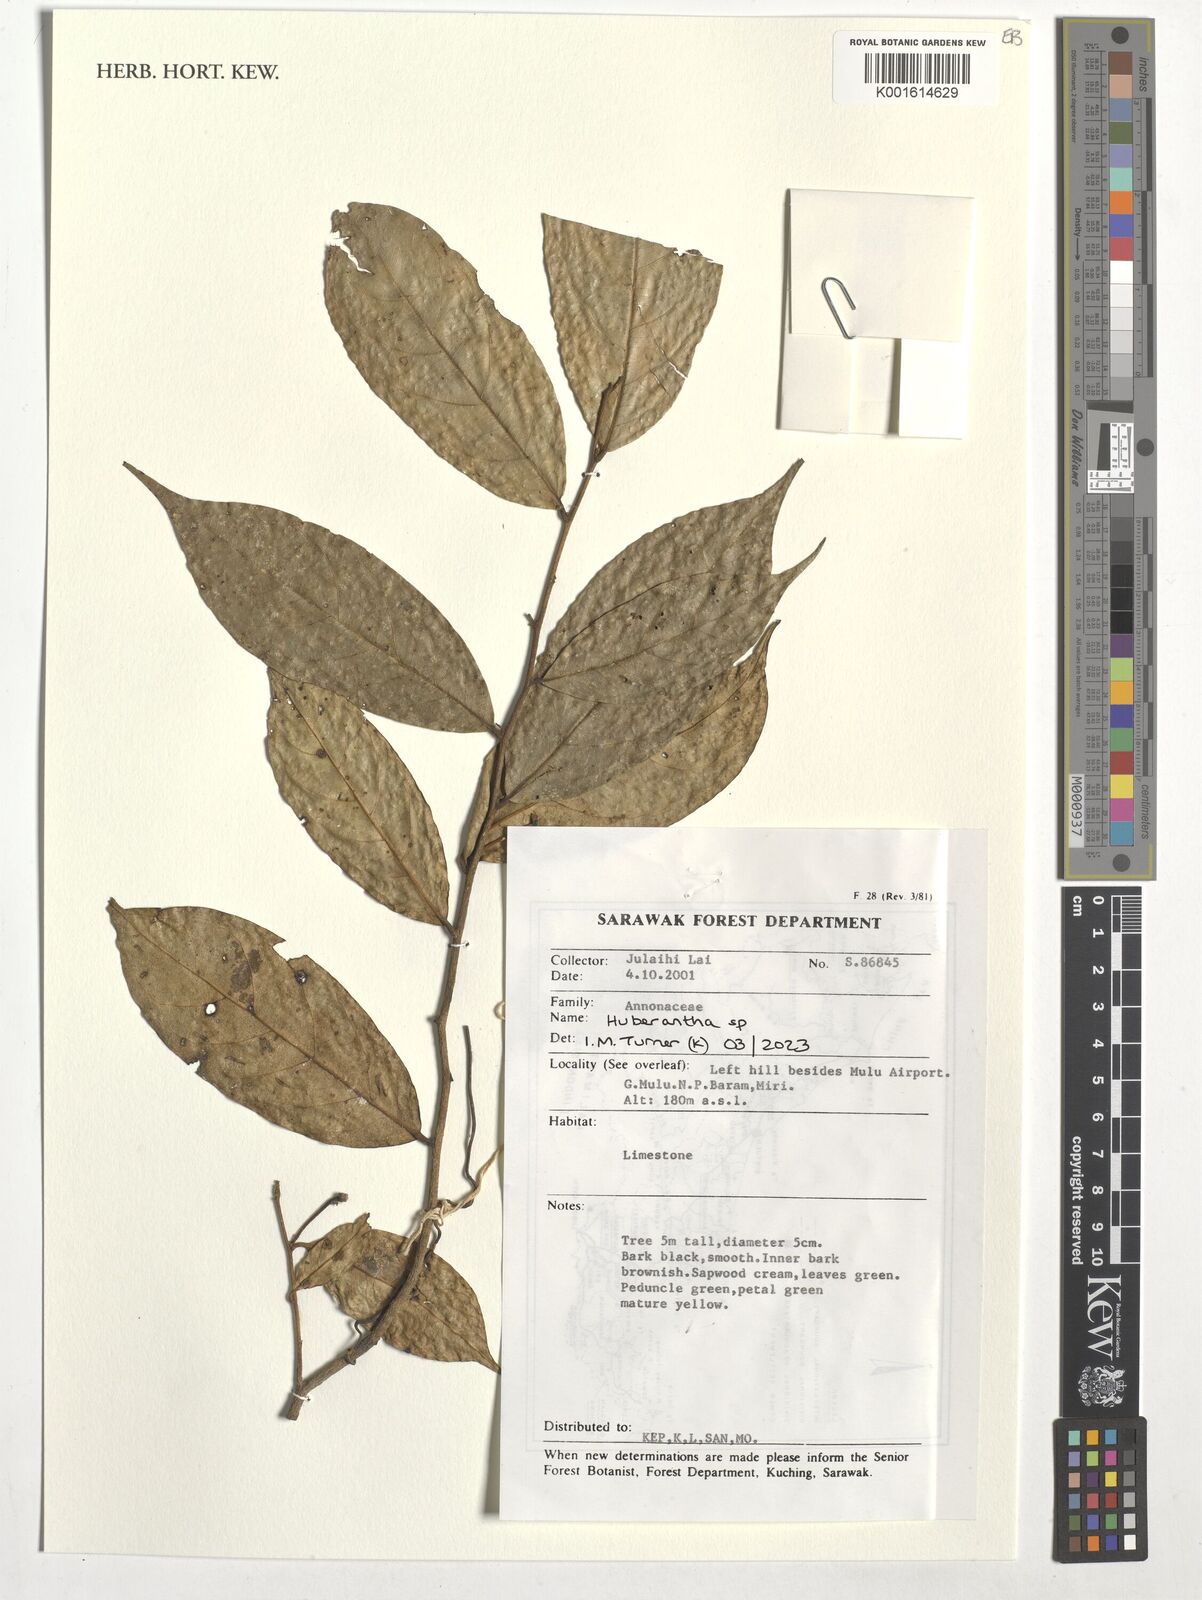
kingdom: Plantae
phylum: Tracheophyta
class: Magnoliopsida
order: Magnoliales
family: Annonaceae
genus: Huberantha
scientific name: Huberantha
